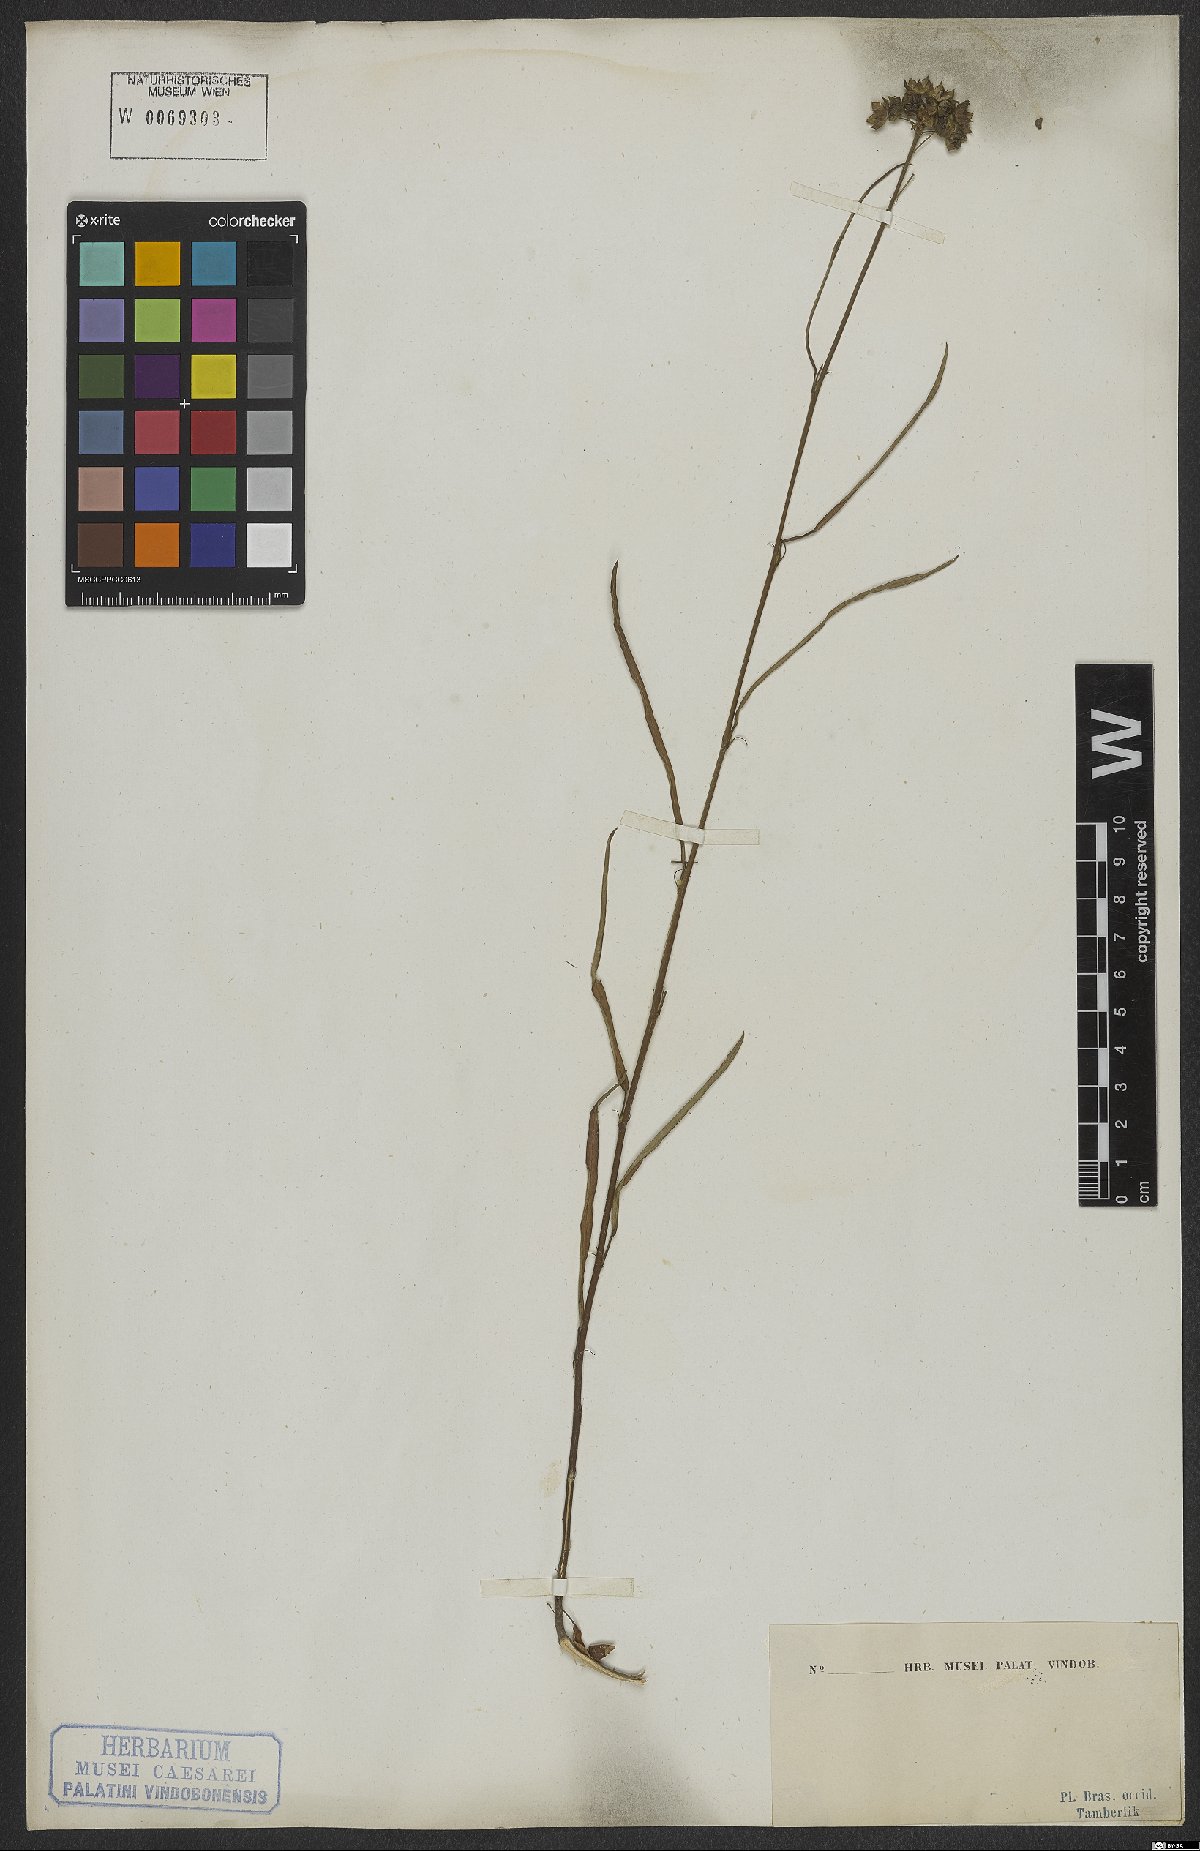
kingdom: Plantae
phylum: Tracheophyta
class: Magnoliopsida
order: Malvales
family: Malvaceae
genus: Sida
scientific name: Sida linifolia
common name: Flaxleaf fanpetals
